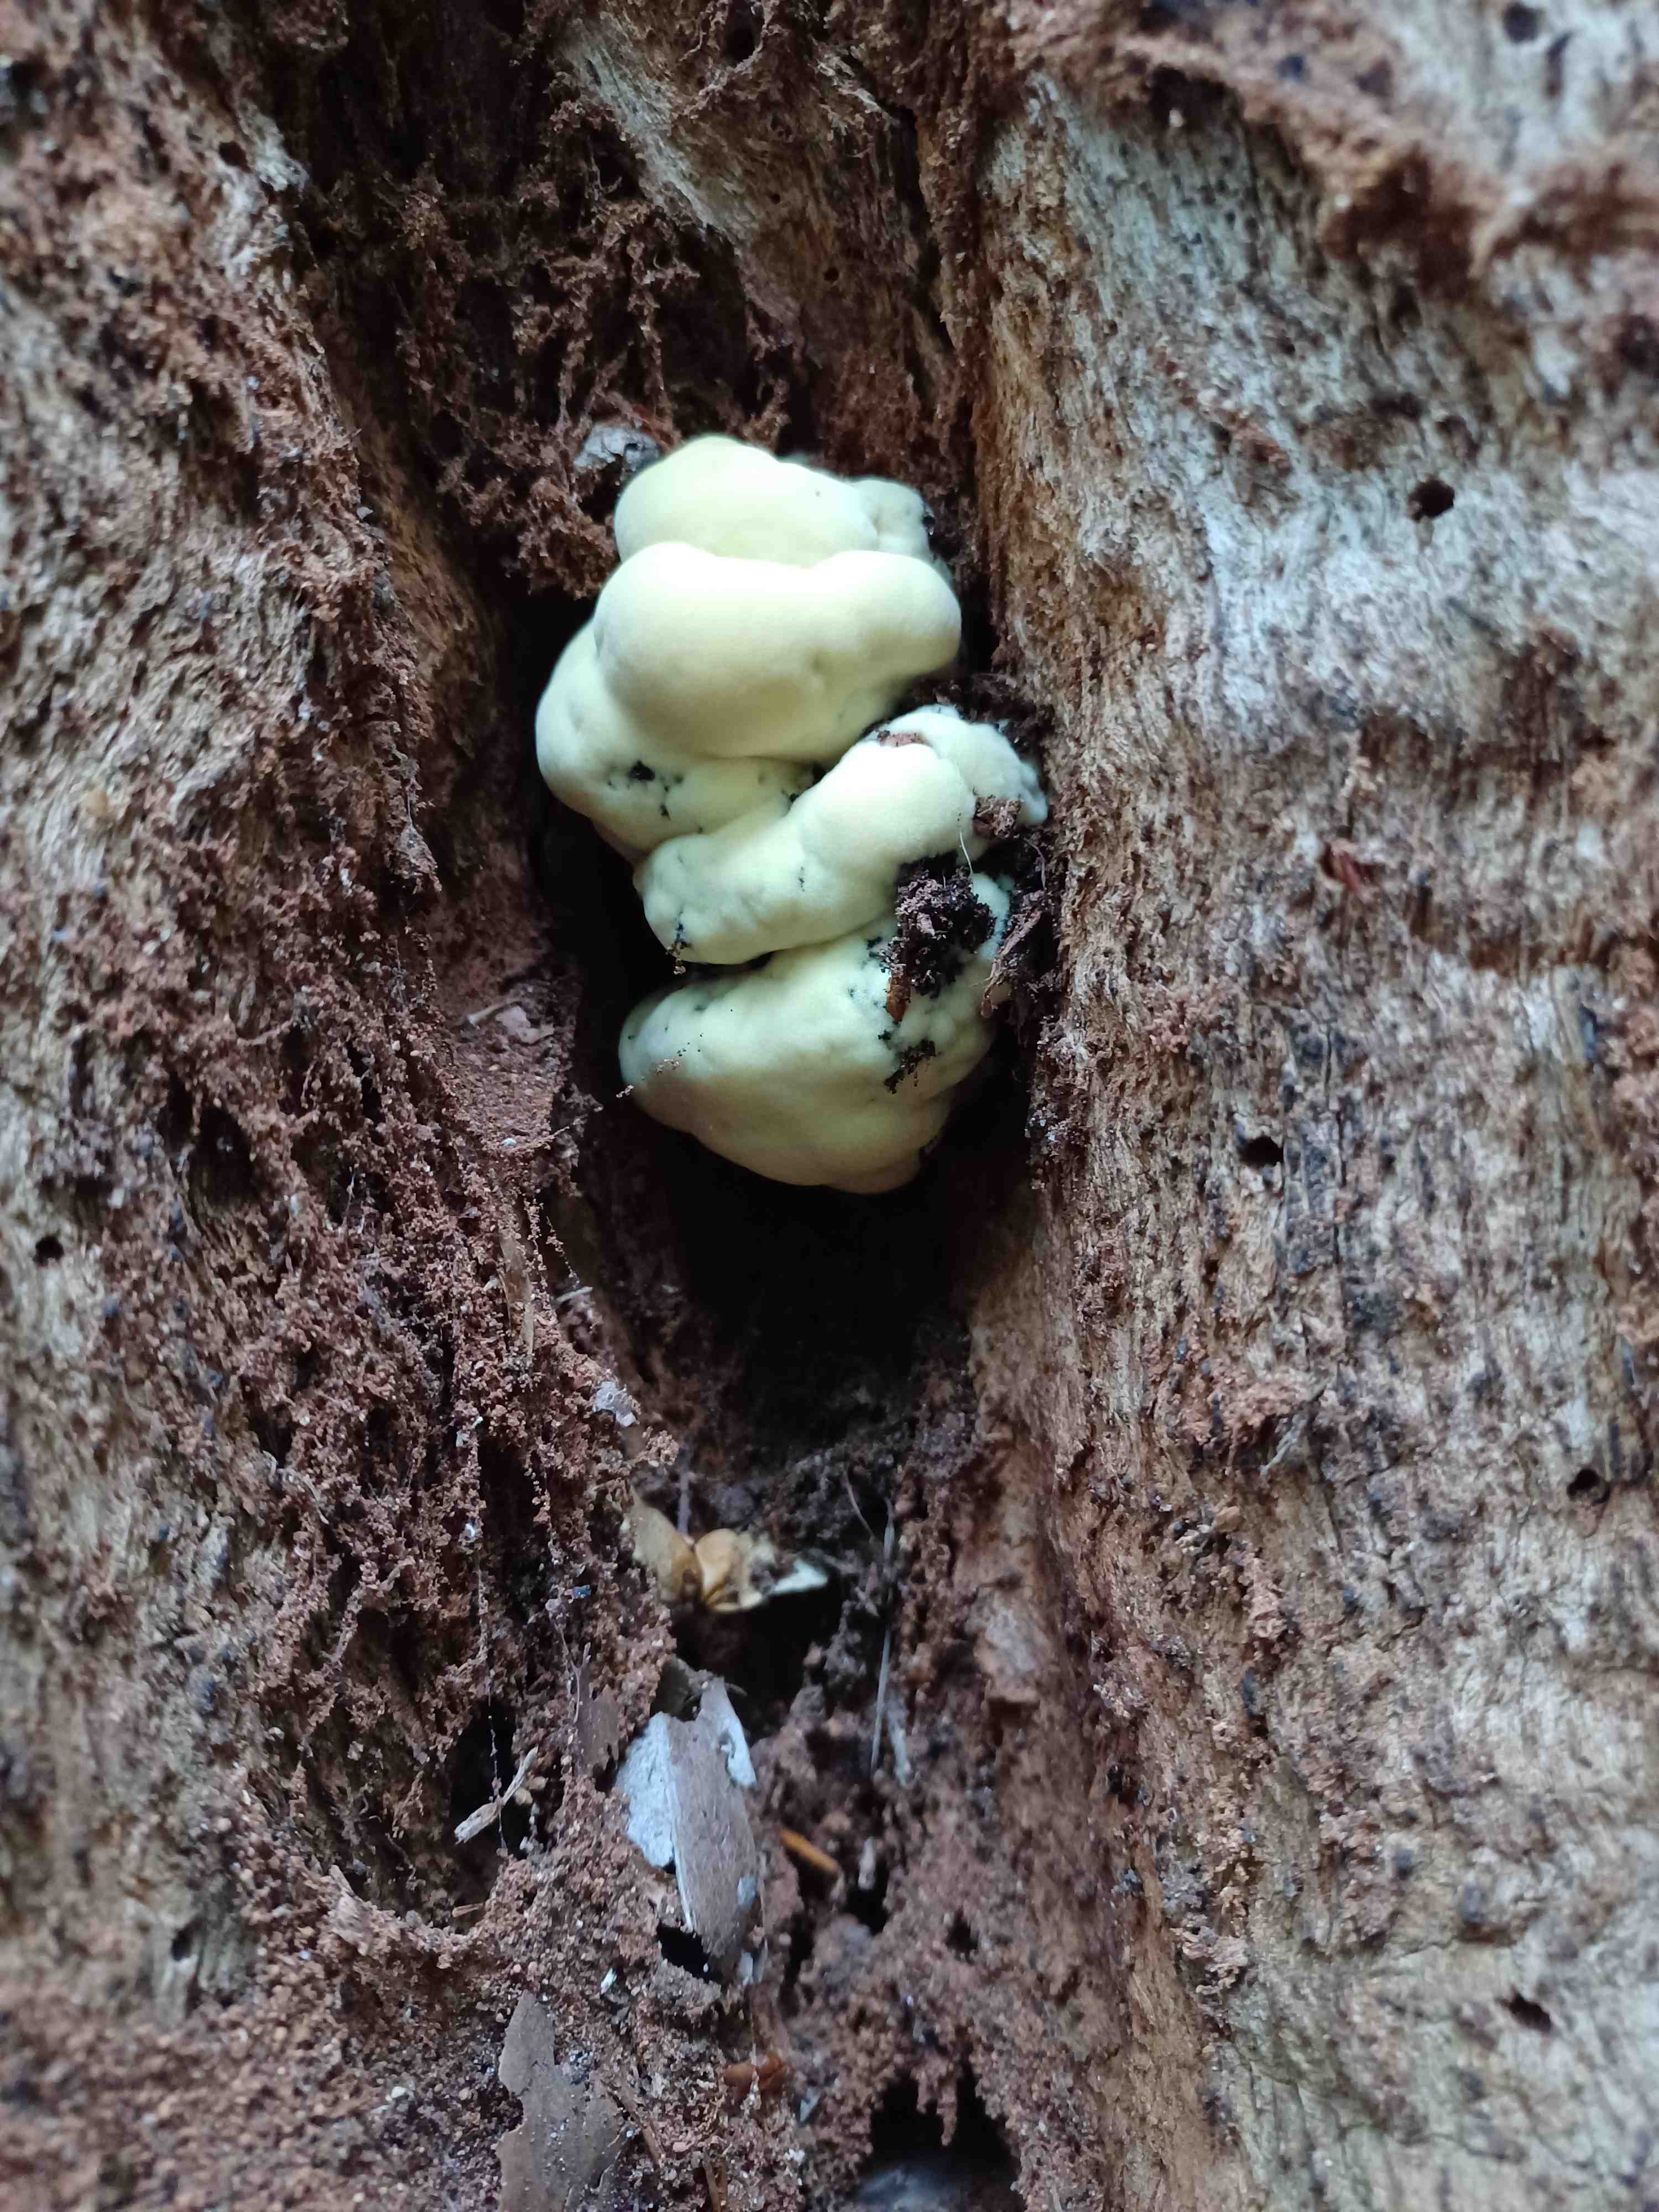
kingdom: Fungi
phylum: Basidiomycota
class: Agaricomycetes
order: Polyporales
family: Laetiporaceae
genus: Laetiporus
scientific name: Laetiporus sulphureus
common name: svovlporesvamp
